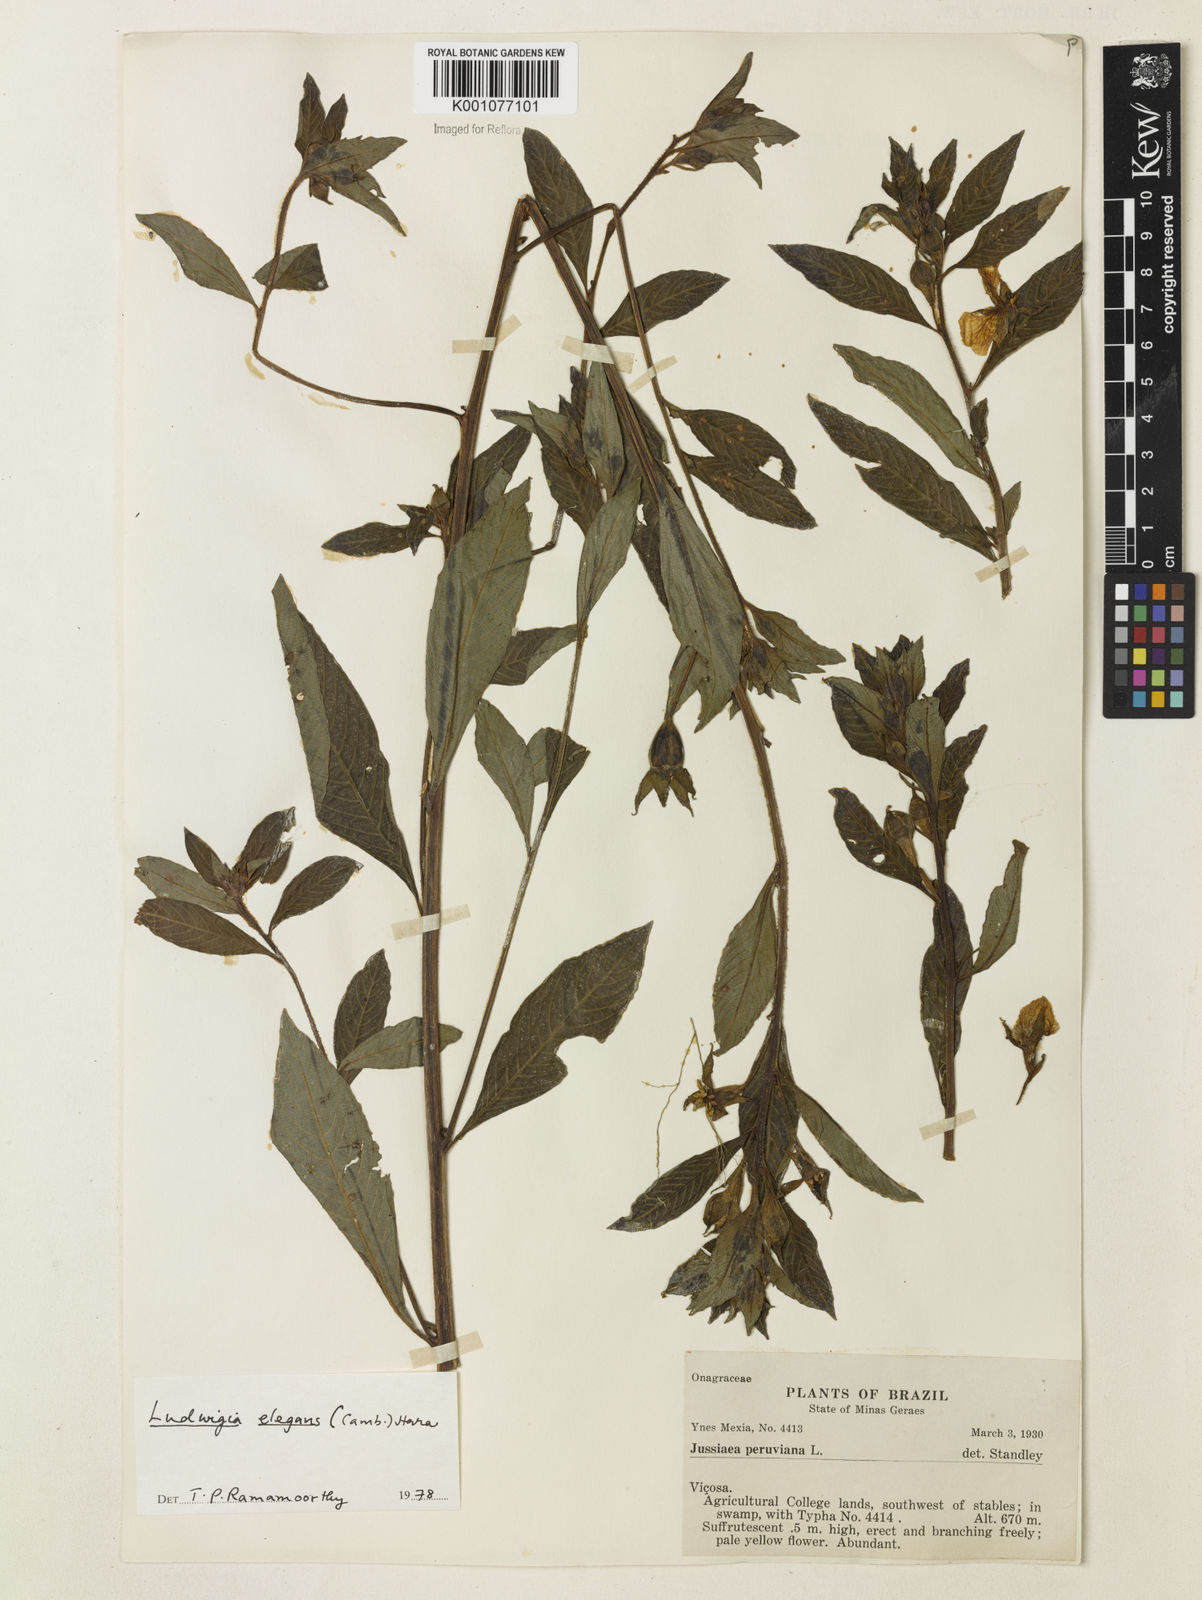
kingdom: Plantae
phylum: Tracheophyta
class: Magnoliopsida
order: Myrtales
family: Onagraceae
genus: Ludwigia
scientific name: Ludwigia elegans
